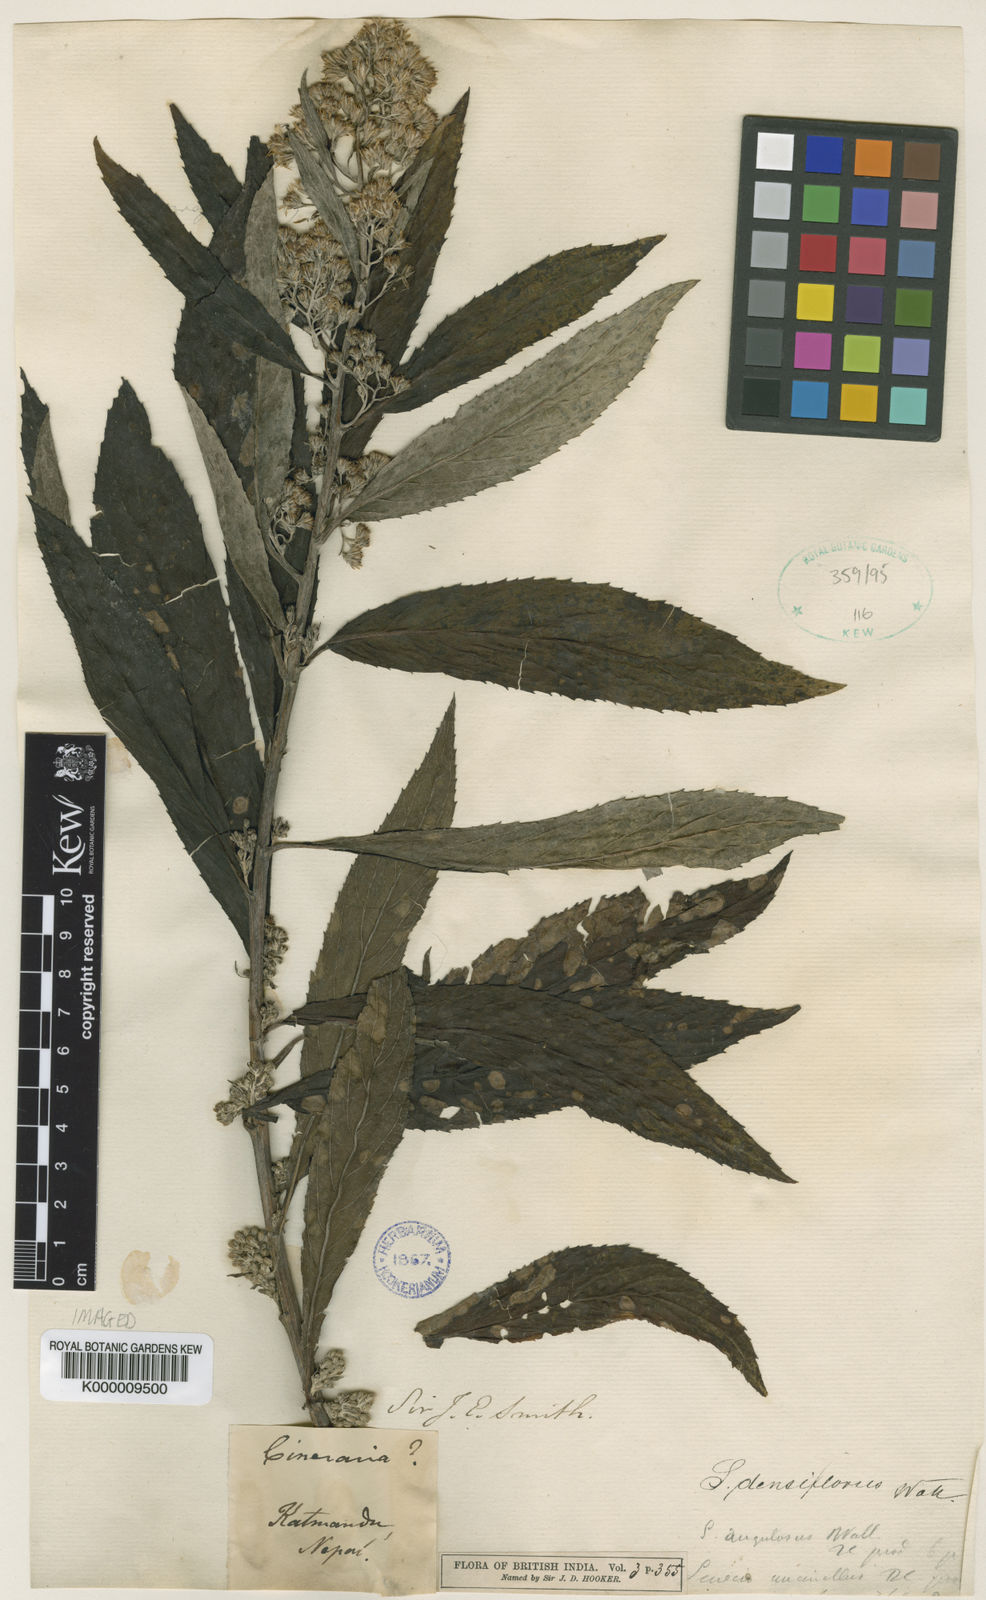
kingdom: Plantae
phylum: Tracheophyta
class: Magnoliopsida
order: Asterales
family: Asteraceae
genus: Synotis
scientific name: Synotis cappa
